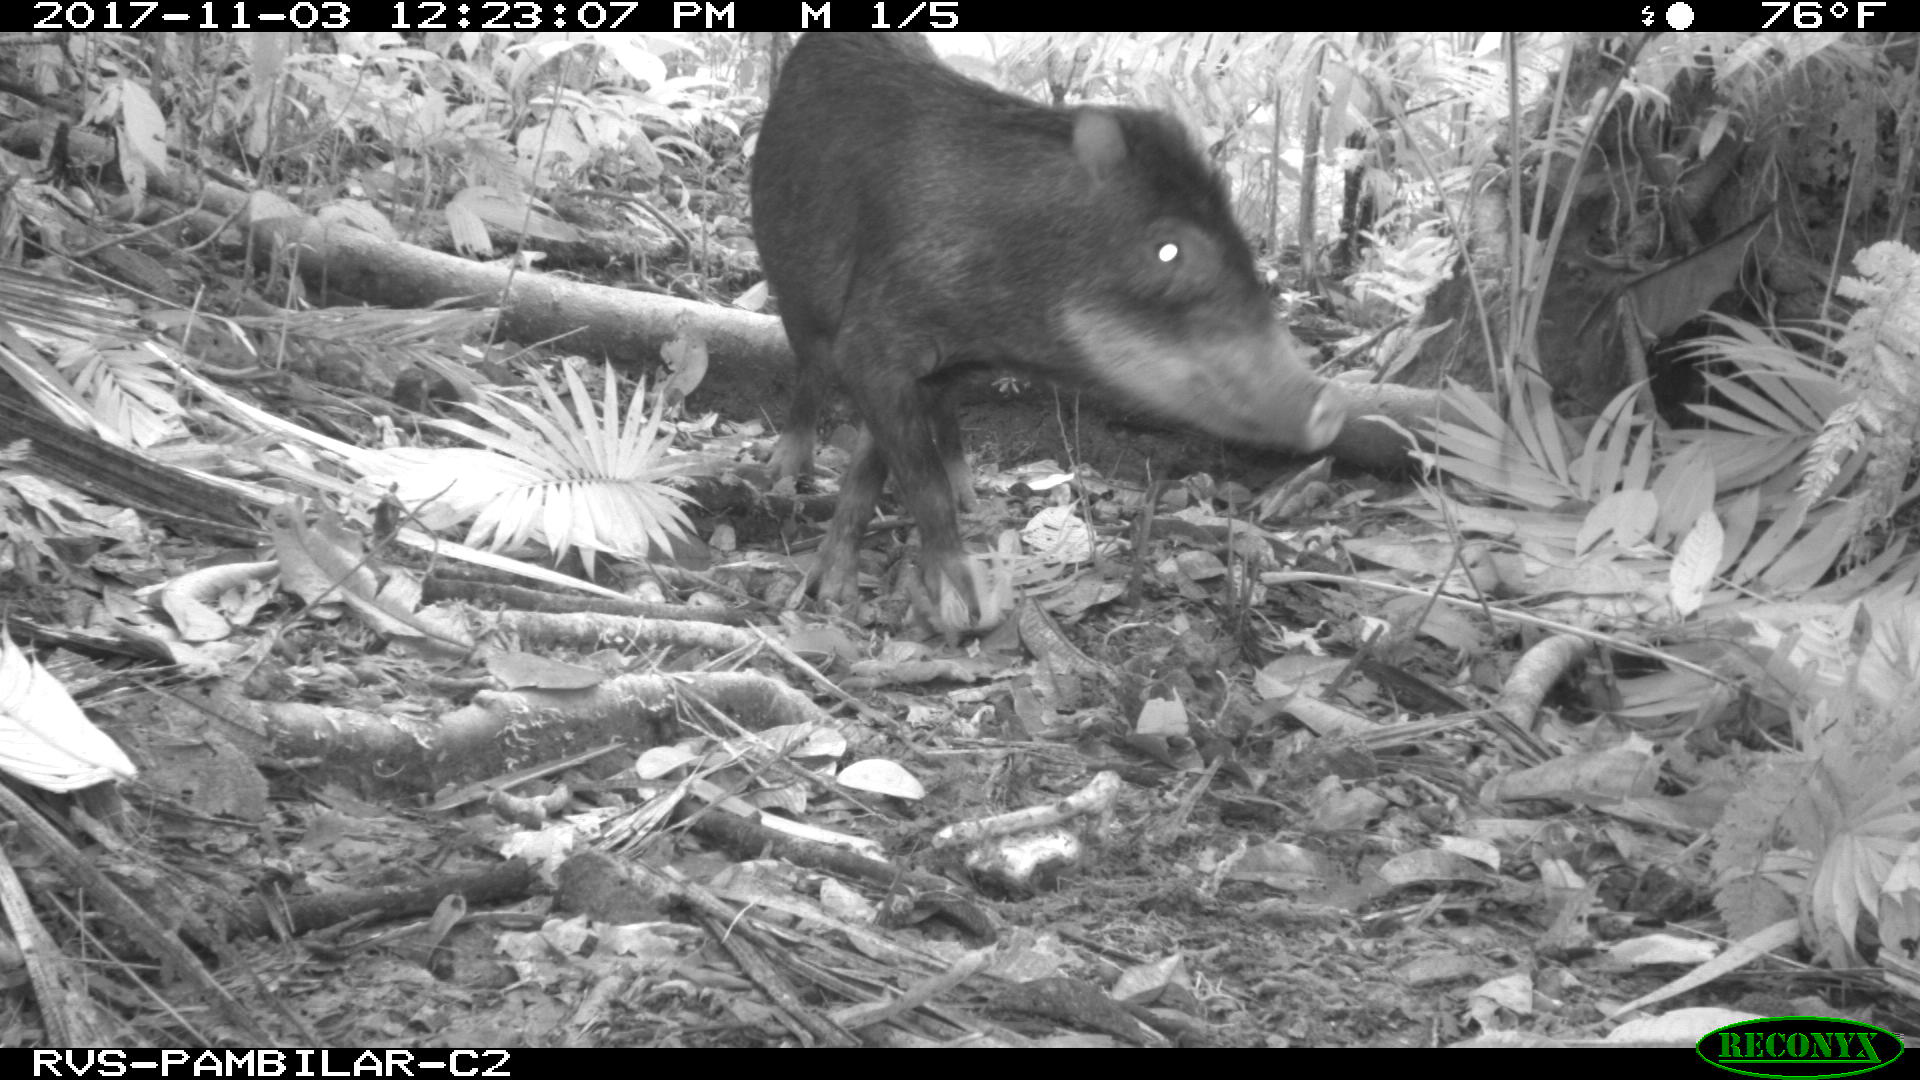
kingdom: Animalia
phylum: Chordata
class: Mammalia
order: Artiodactyla
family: Tayassuidae
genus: Tayassu
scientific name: Tayassu pecari
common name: White-lipped peccary
